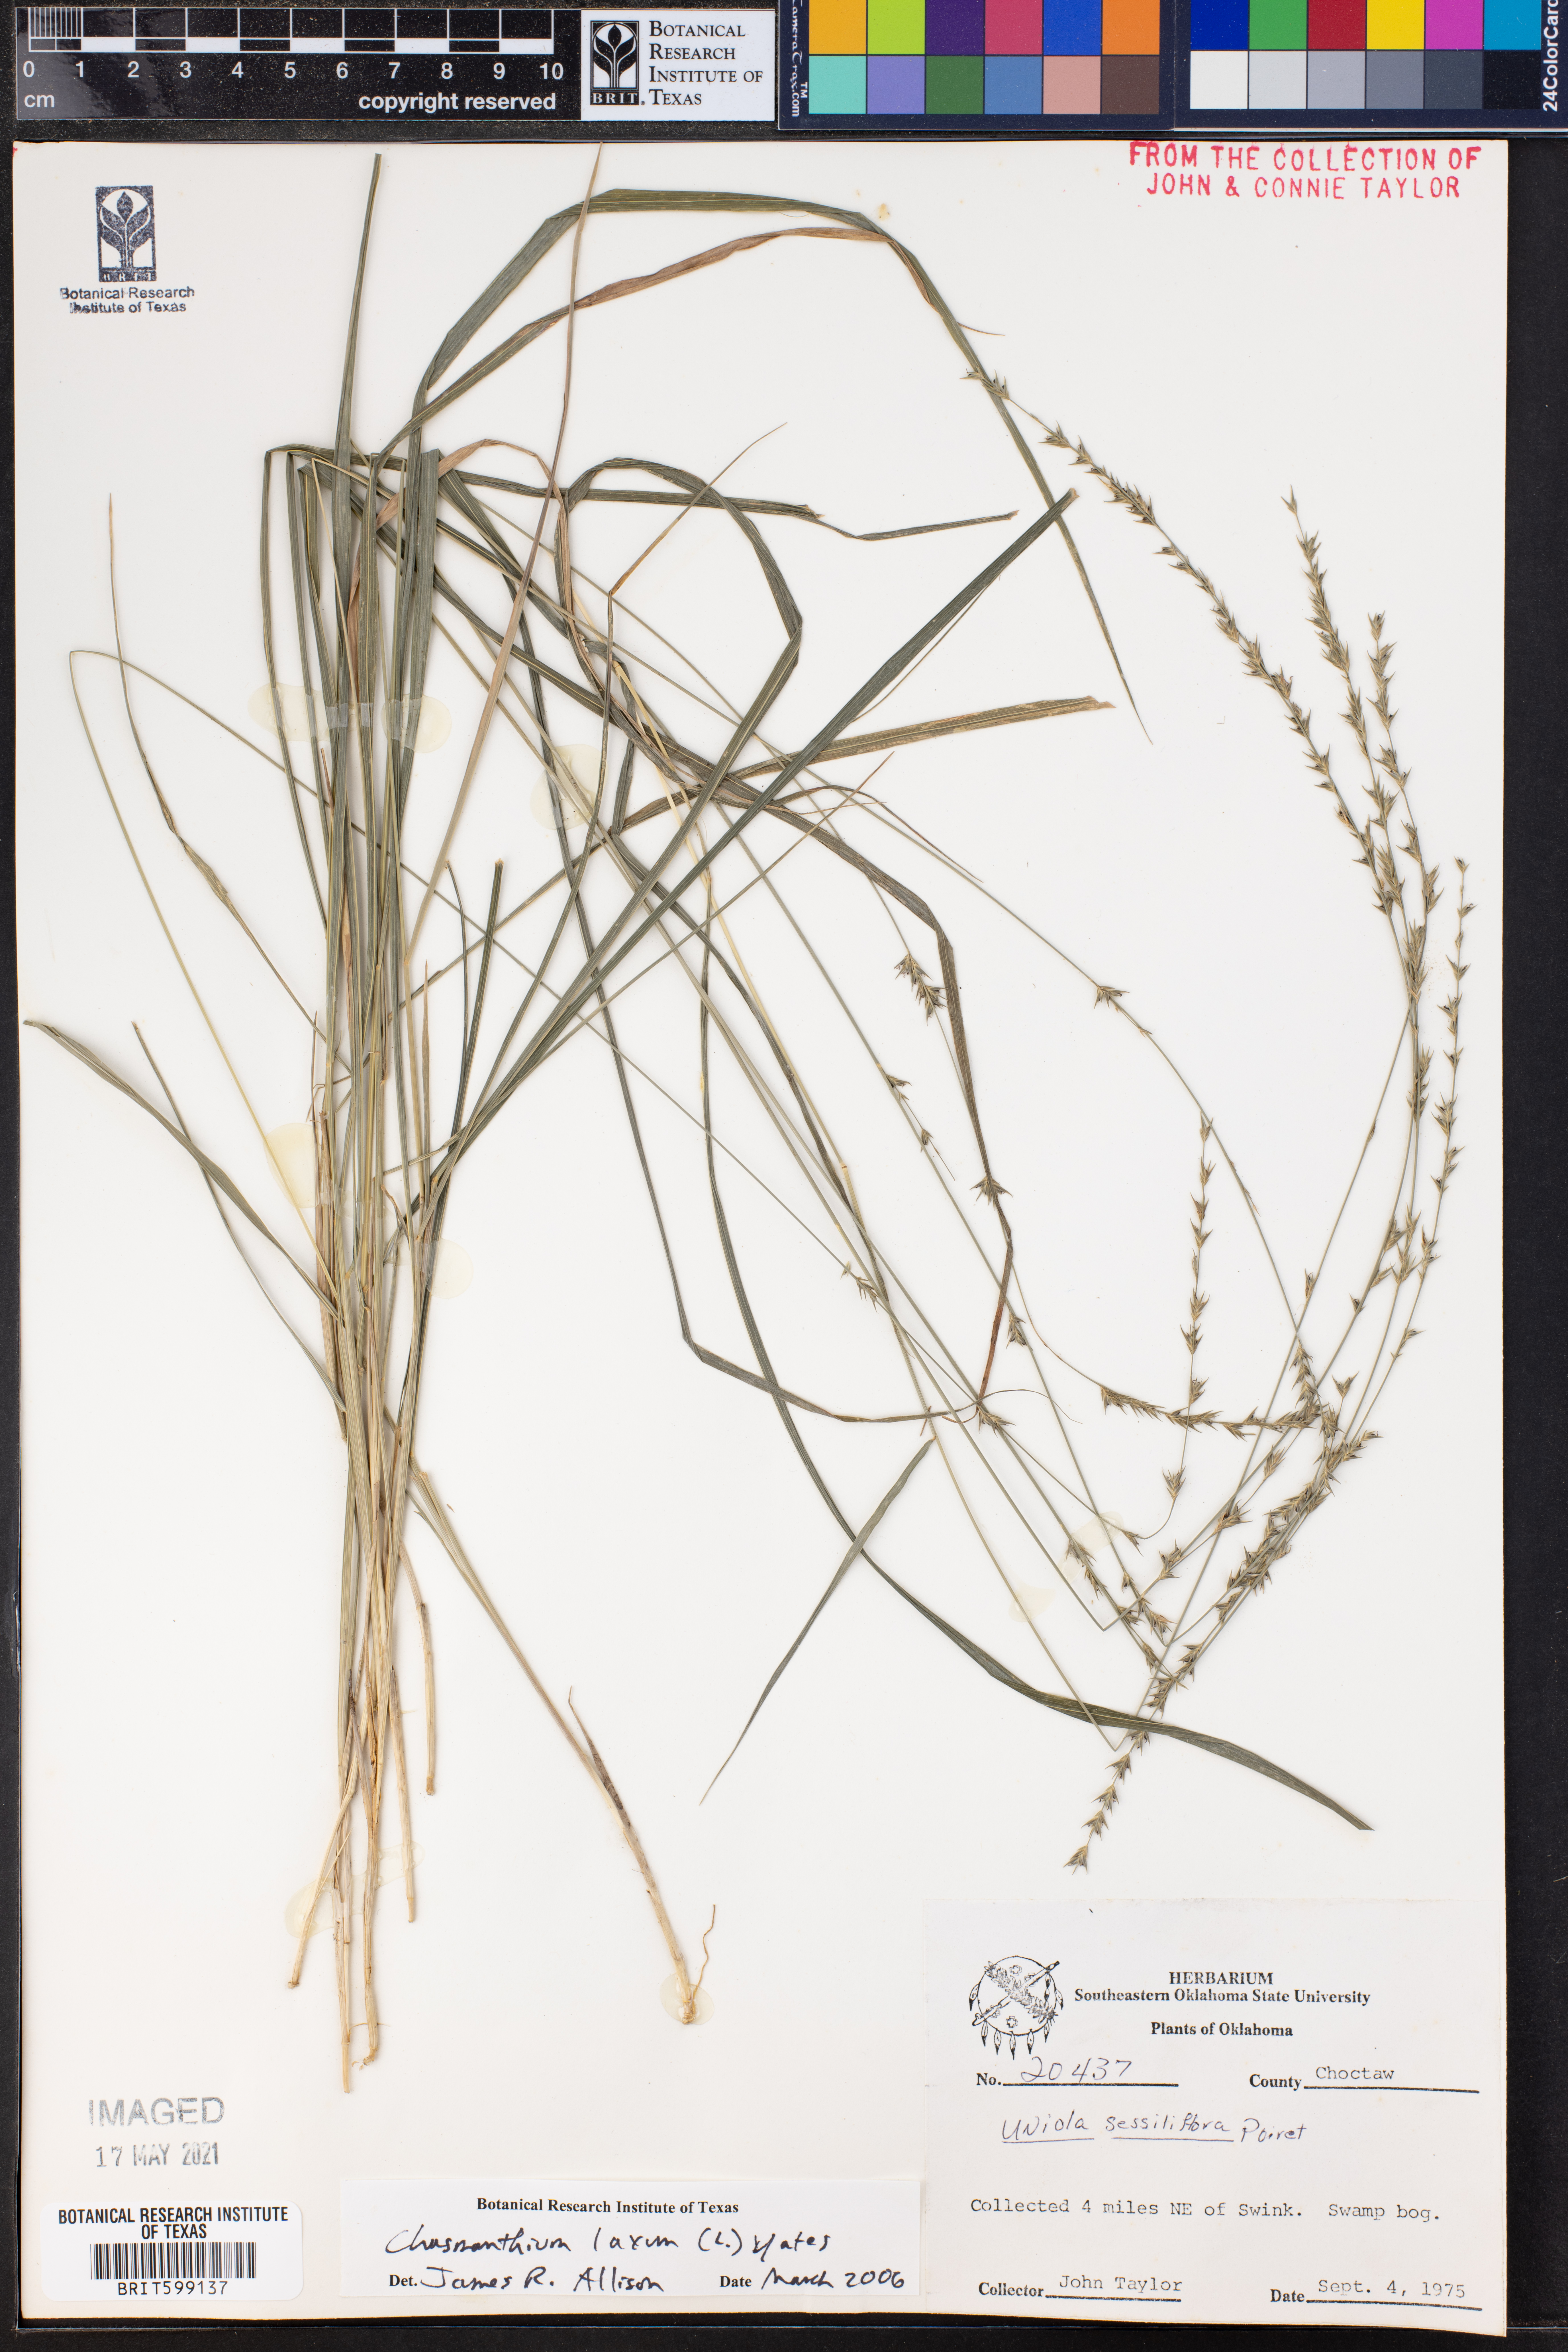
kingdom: Plantae
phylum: Tracheophyta
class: Liliopsida
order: Poales
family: Poaceae
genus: Chasmanthium
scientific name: Chasmanthium laxum
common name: Slender chasmanthium
